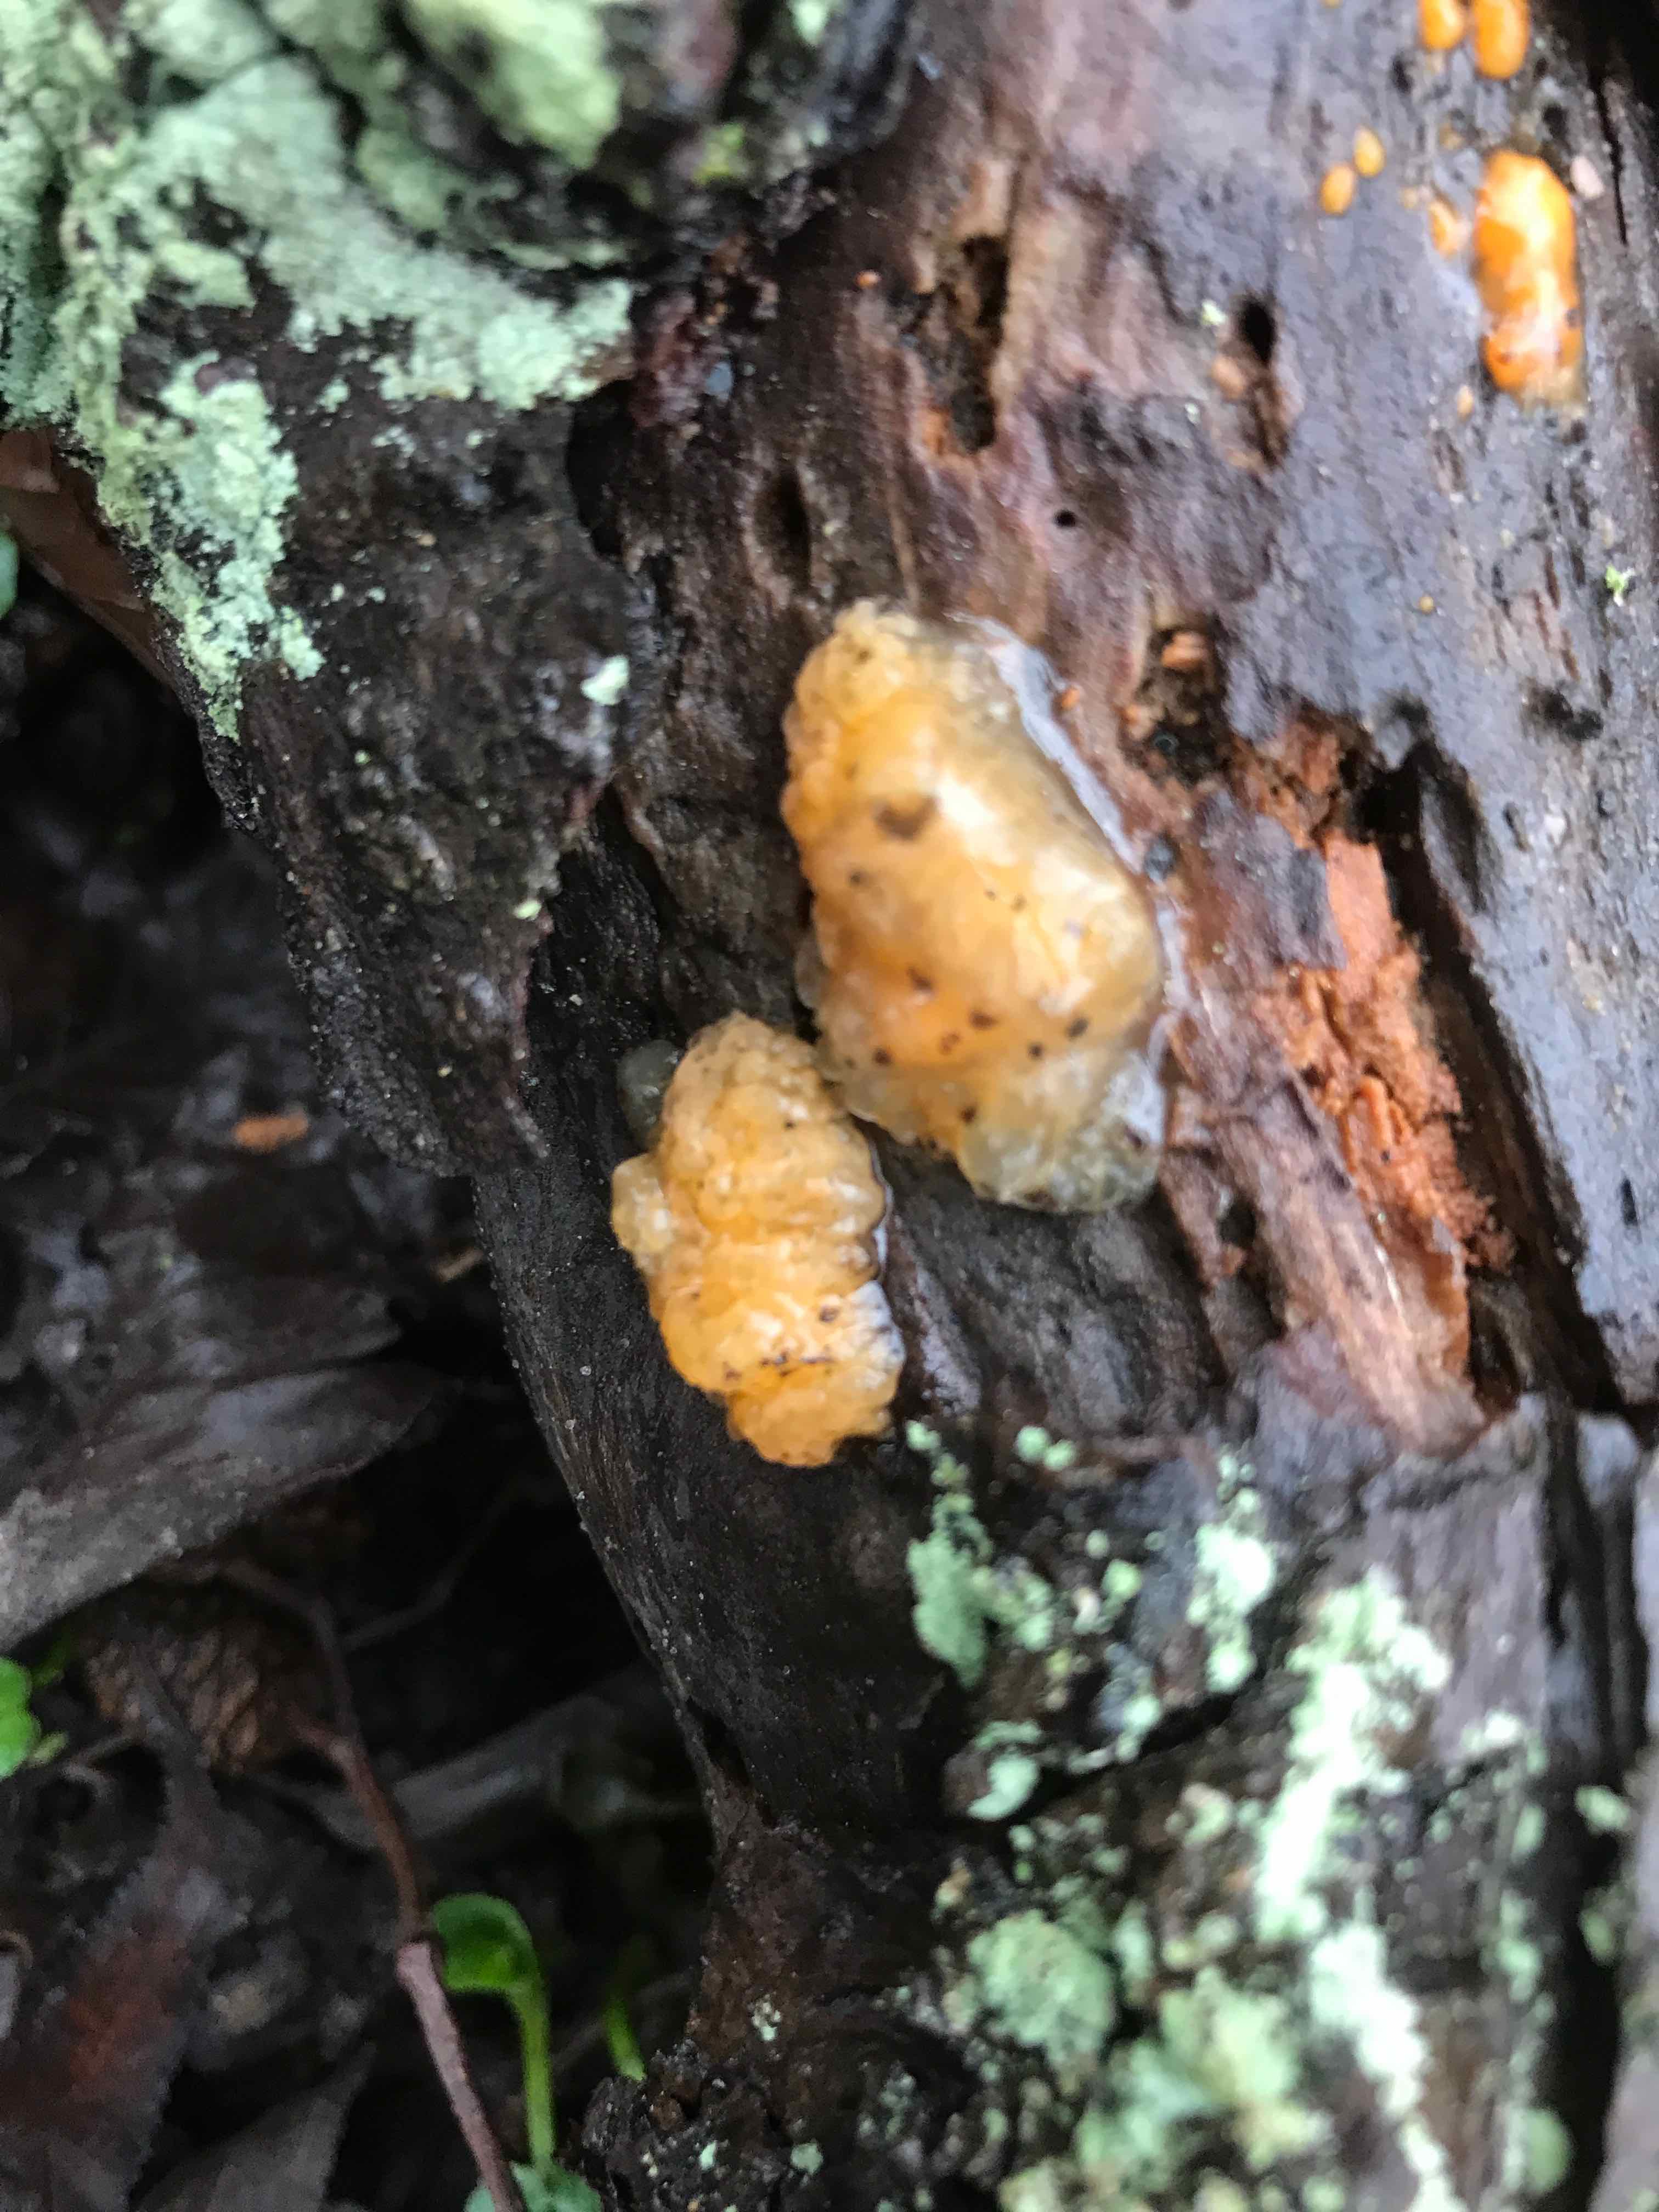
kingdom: Fungi
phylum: Basidiomycota
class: Dacrymycetes
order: Dacrymycetales
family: Dacrymycetaceae
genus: Dacrymyces
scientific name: Dacrymyces lacrymalis
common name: rynket tåresvamp
